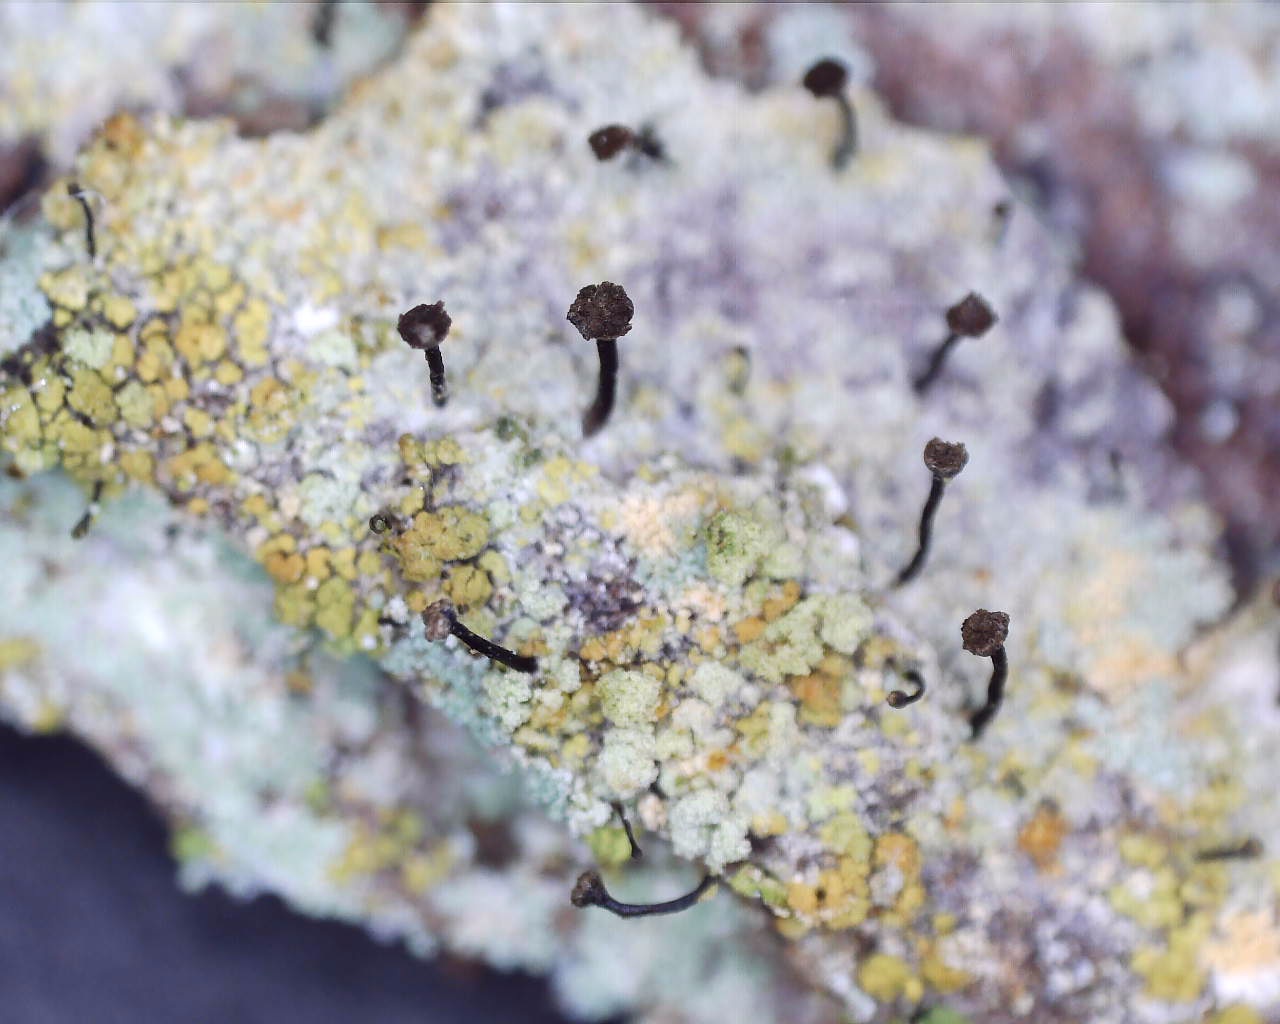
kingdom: Fungi
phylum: Ascomycota
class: Coniocybomycetes
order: Coniocybales
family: Coniocybaceae
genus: Chaenotheca
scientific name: Chaenotheca ferruginea
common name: rustbrun knappenålslav
